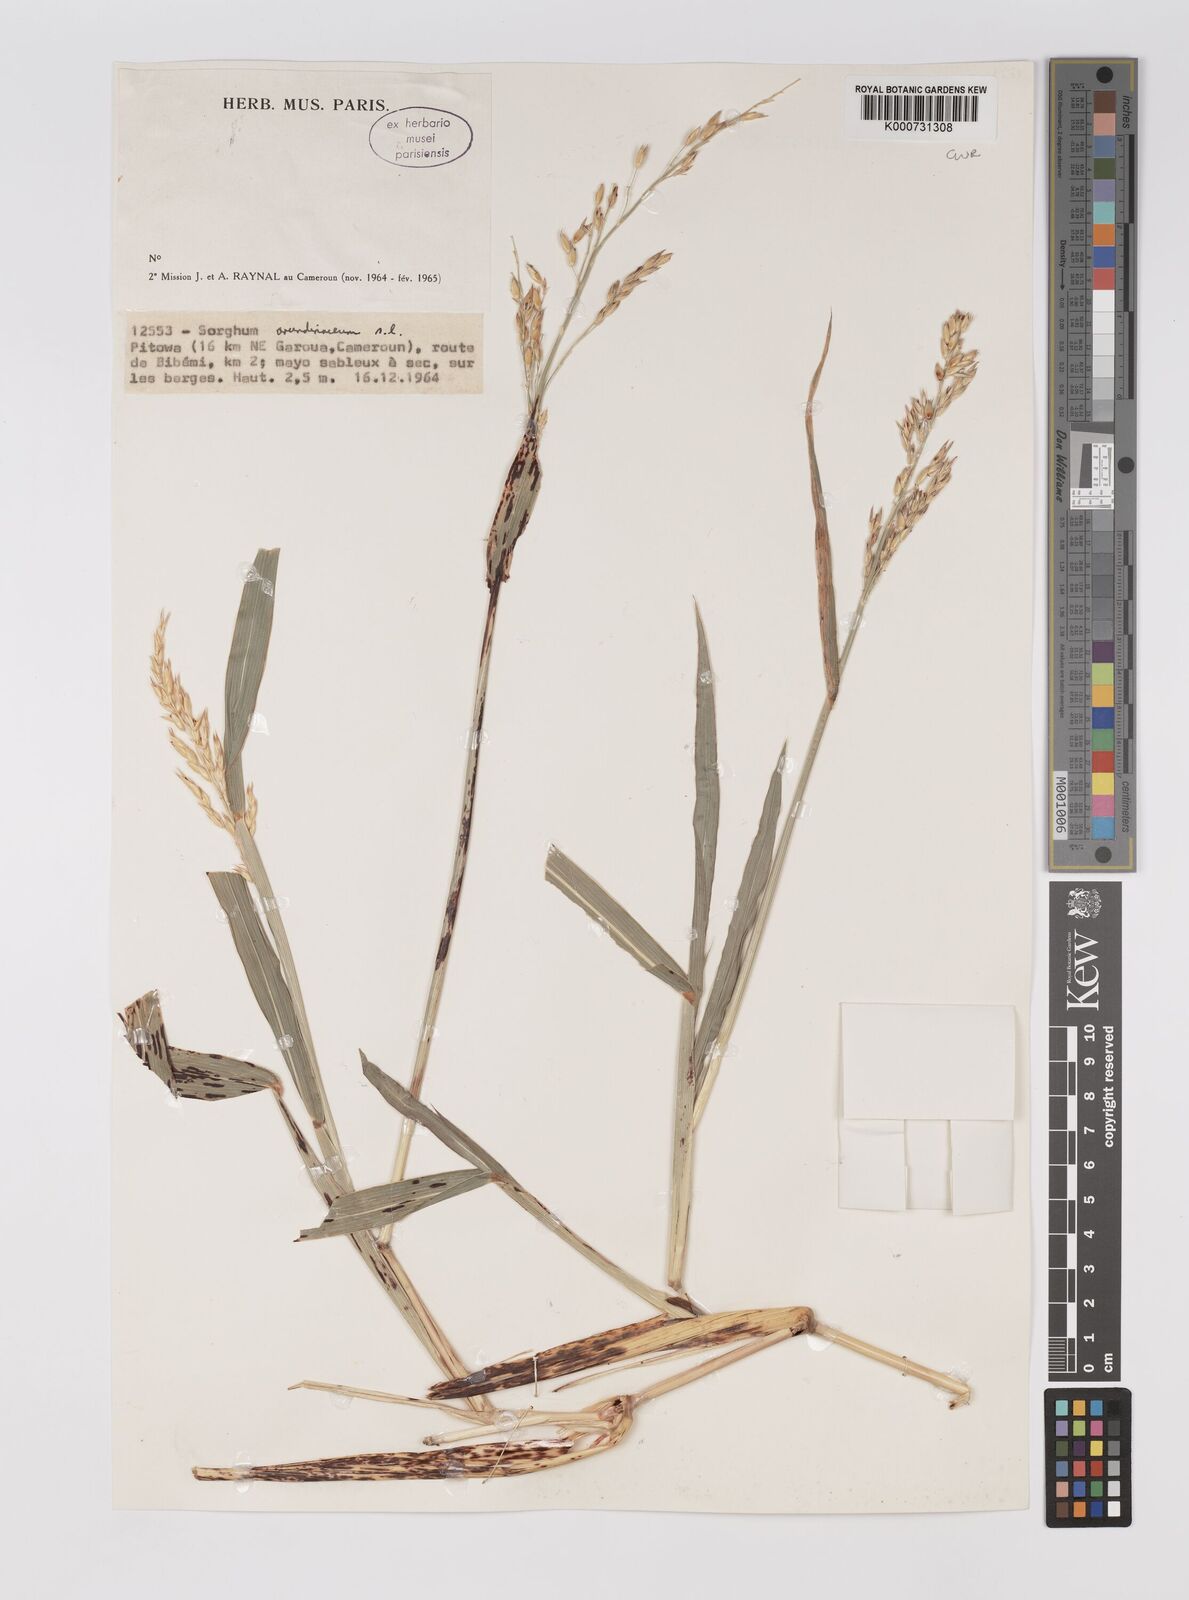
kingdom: Plantae
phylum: Tracheophyta
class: Liliopsida
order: Poales
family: Poaceae
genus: Sorghum
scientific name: Sorghum arundinaceum
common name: Sorghum
